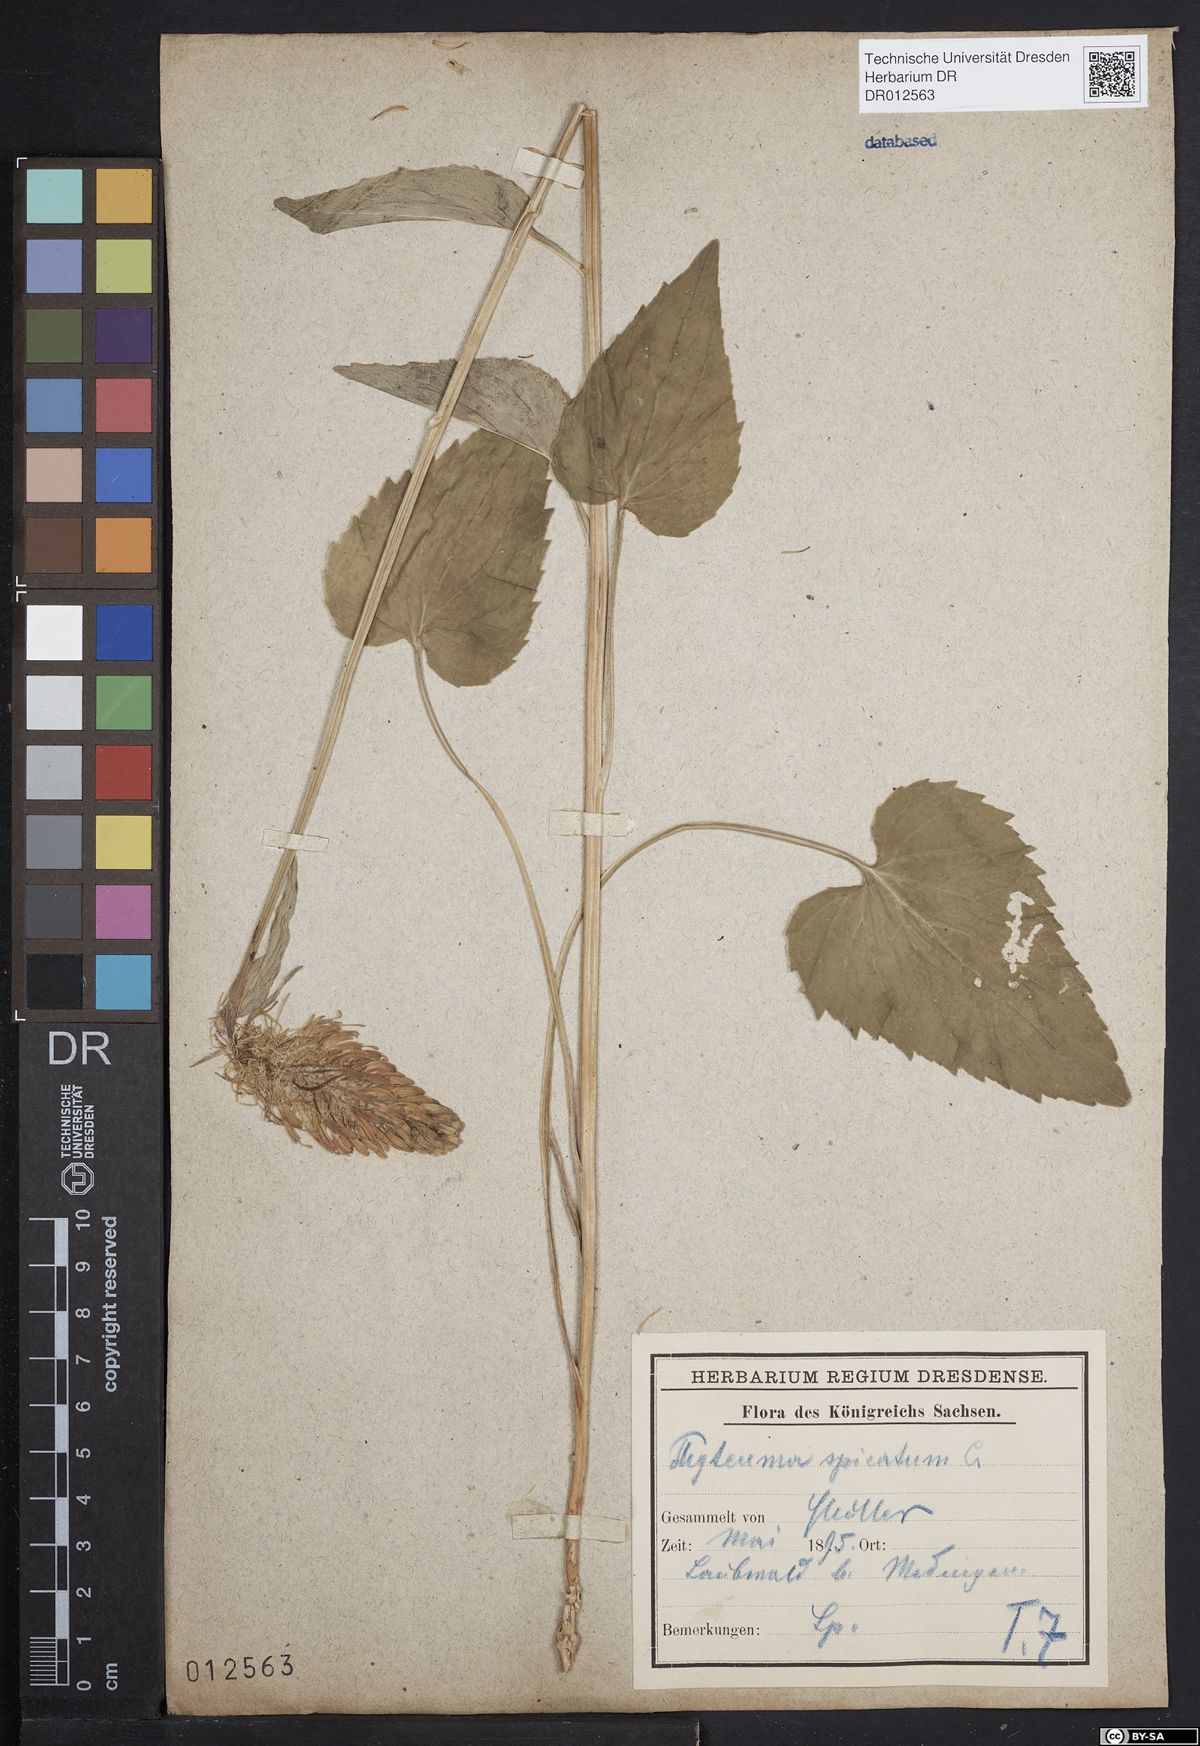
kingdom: Plantae
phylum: Tracheophyta
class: Magnoliopsida
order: Asterales
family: Campanulaceae
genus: Phyteuma
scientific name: Phyteuma spicatum
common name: Spiked rampion
